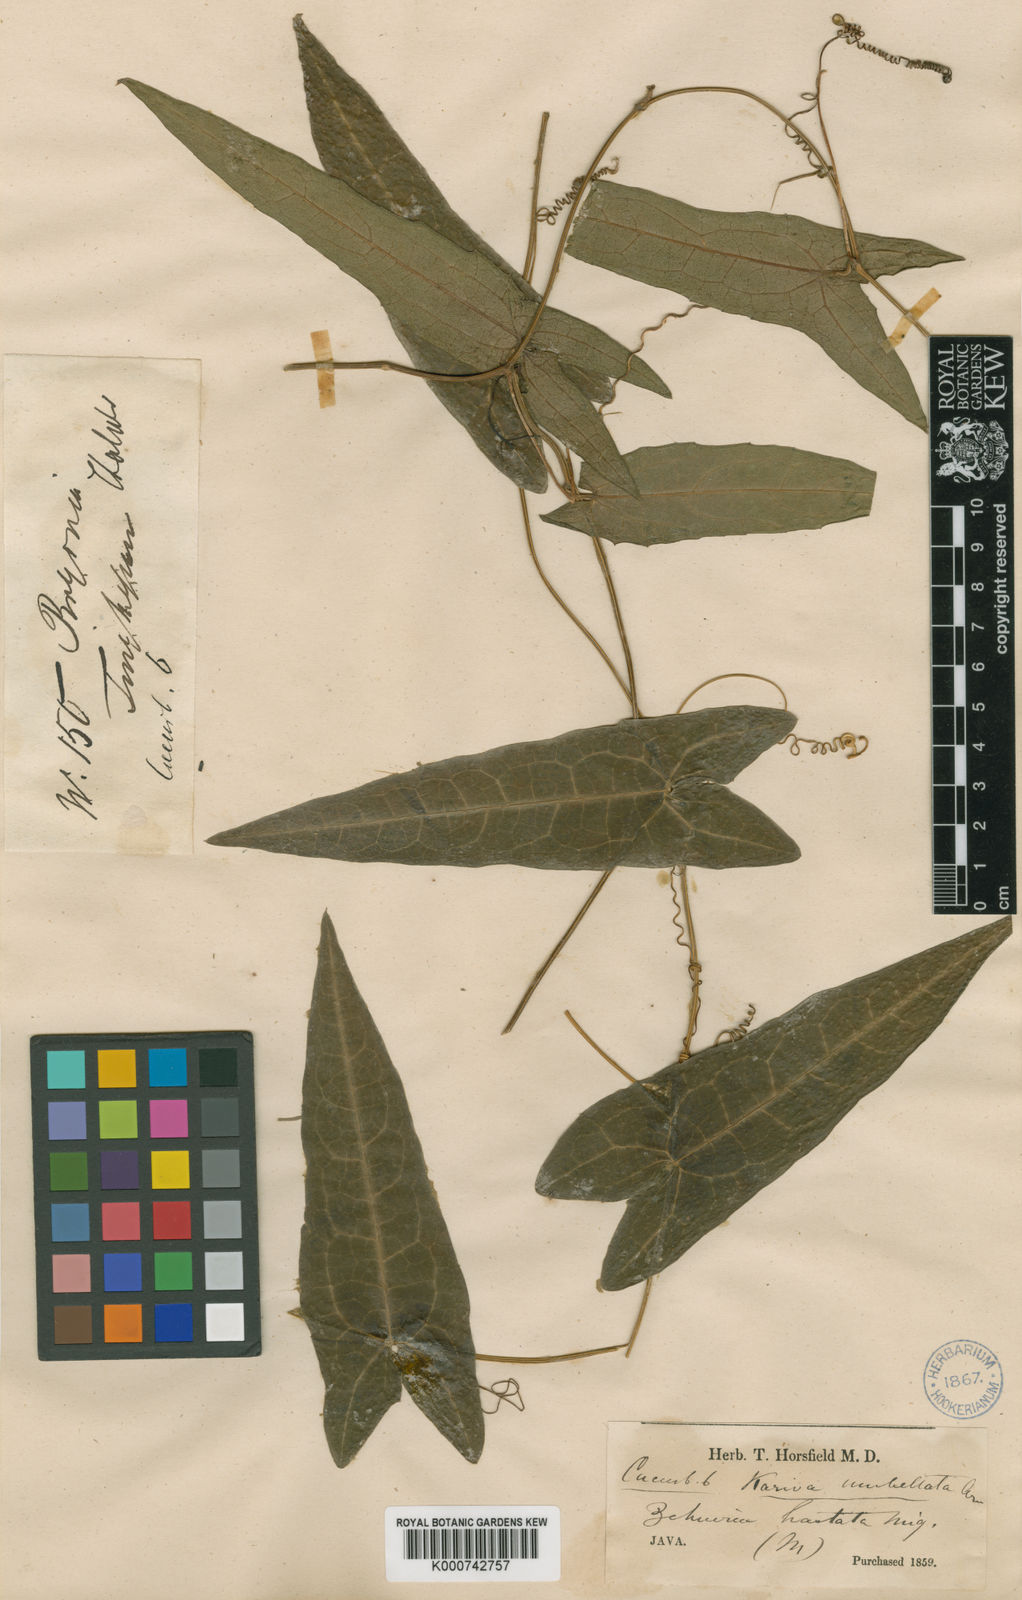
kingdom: Plantae
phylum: Tracheophyta
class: Magnoliopsida
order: Cucurbitales
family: Cucurbitaceae
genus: Solena
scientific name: Solena amplexicaulis
